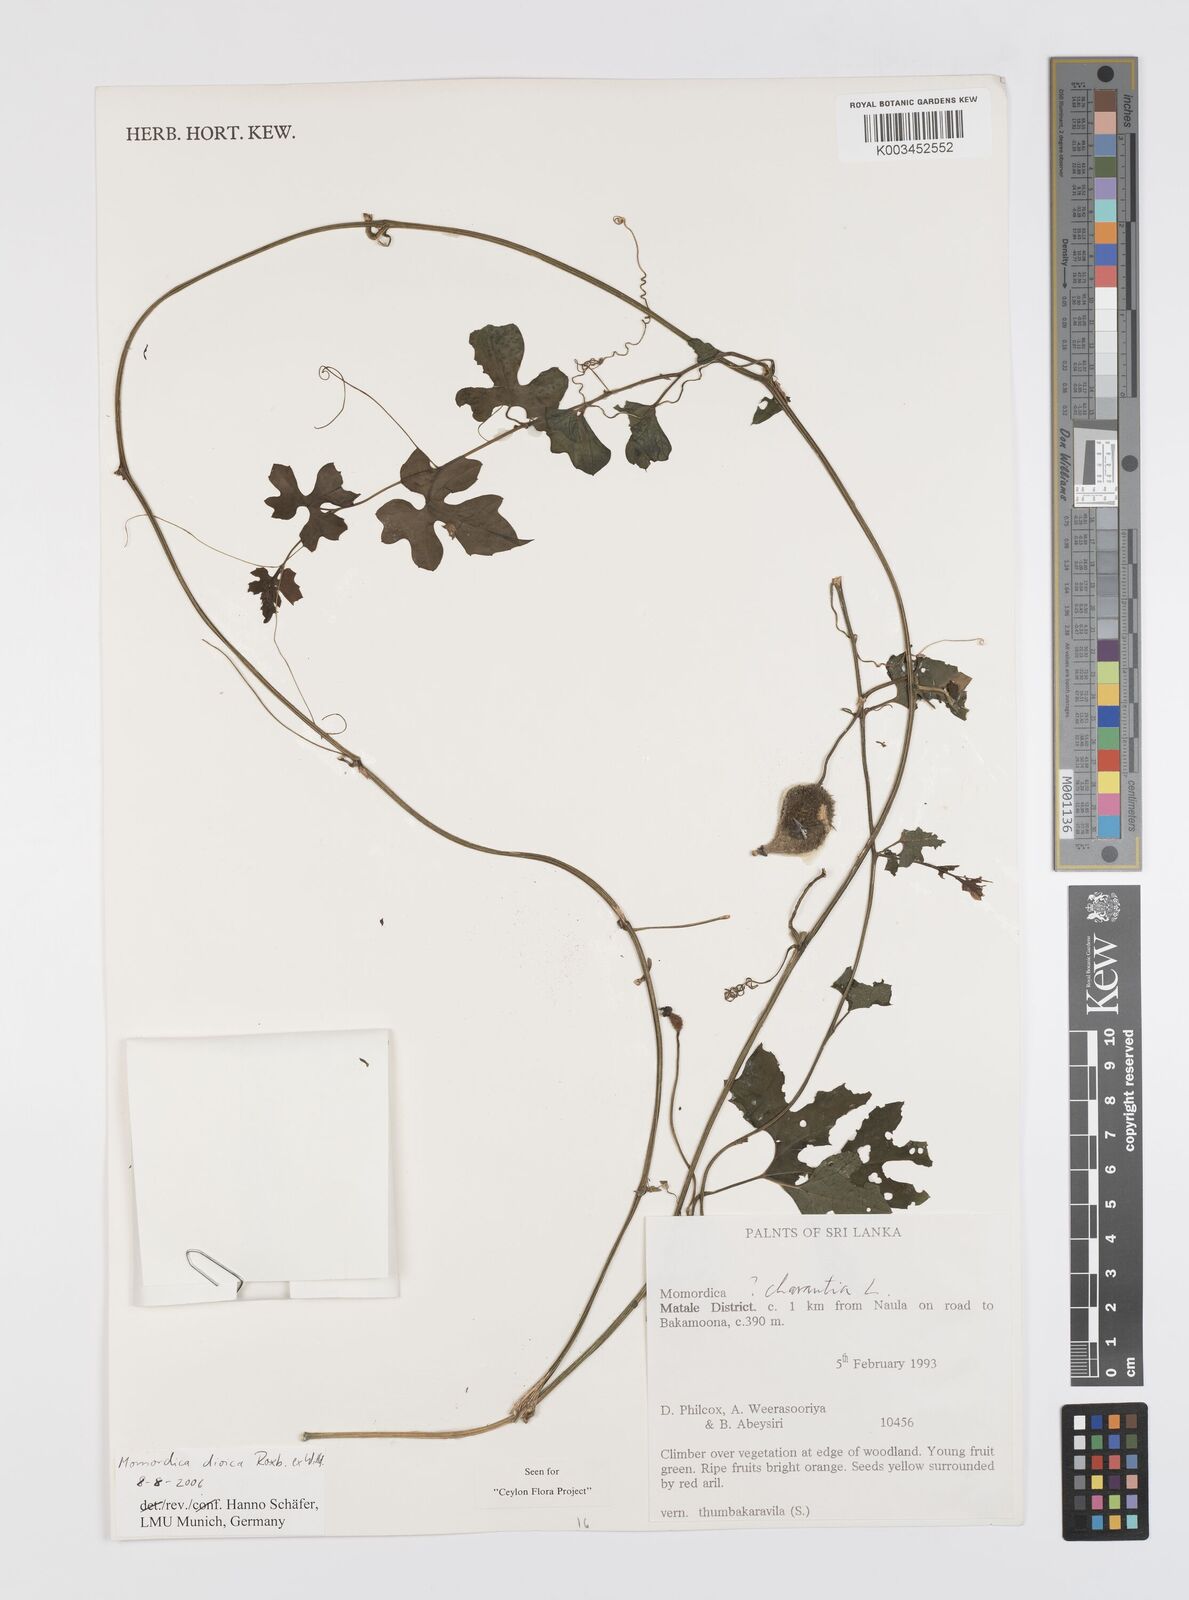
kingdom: Plantae
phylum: Tracheophyta
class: Magnoliopsida
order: Cucurbitales
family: Cucurbitaceae
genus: Momordica
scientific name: Momordica dioica
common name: Spine gourd
